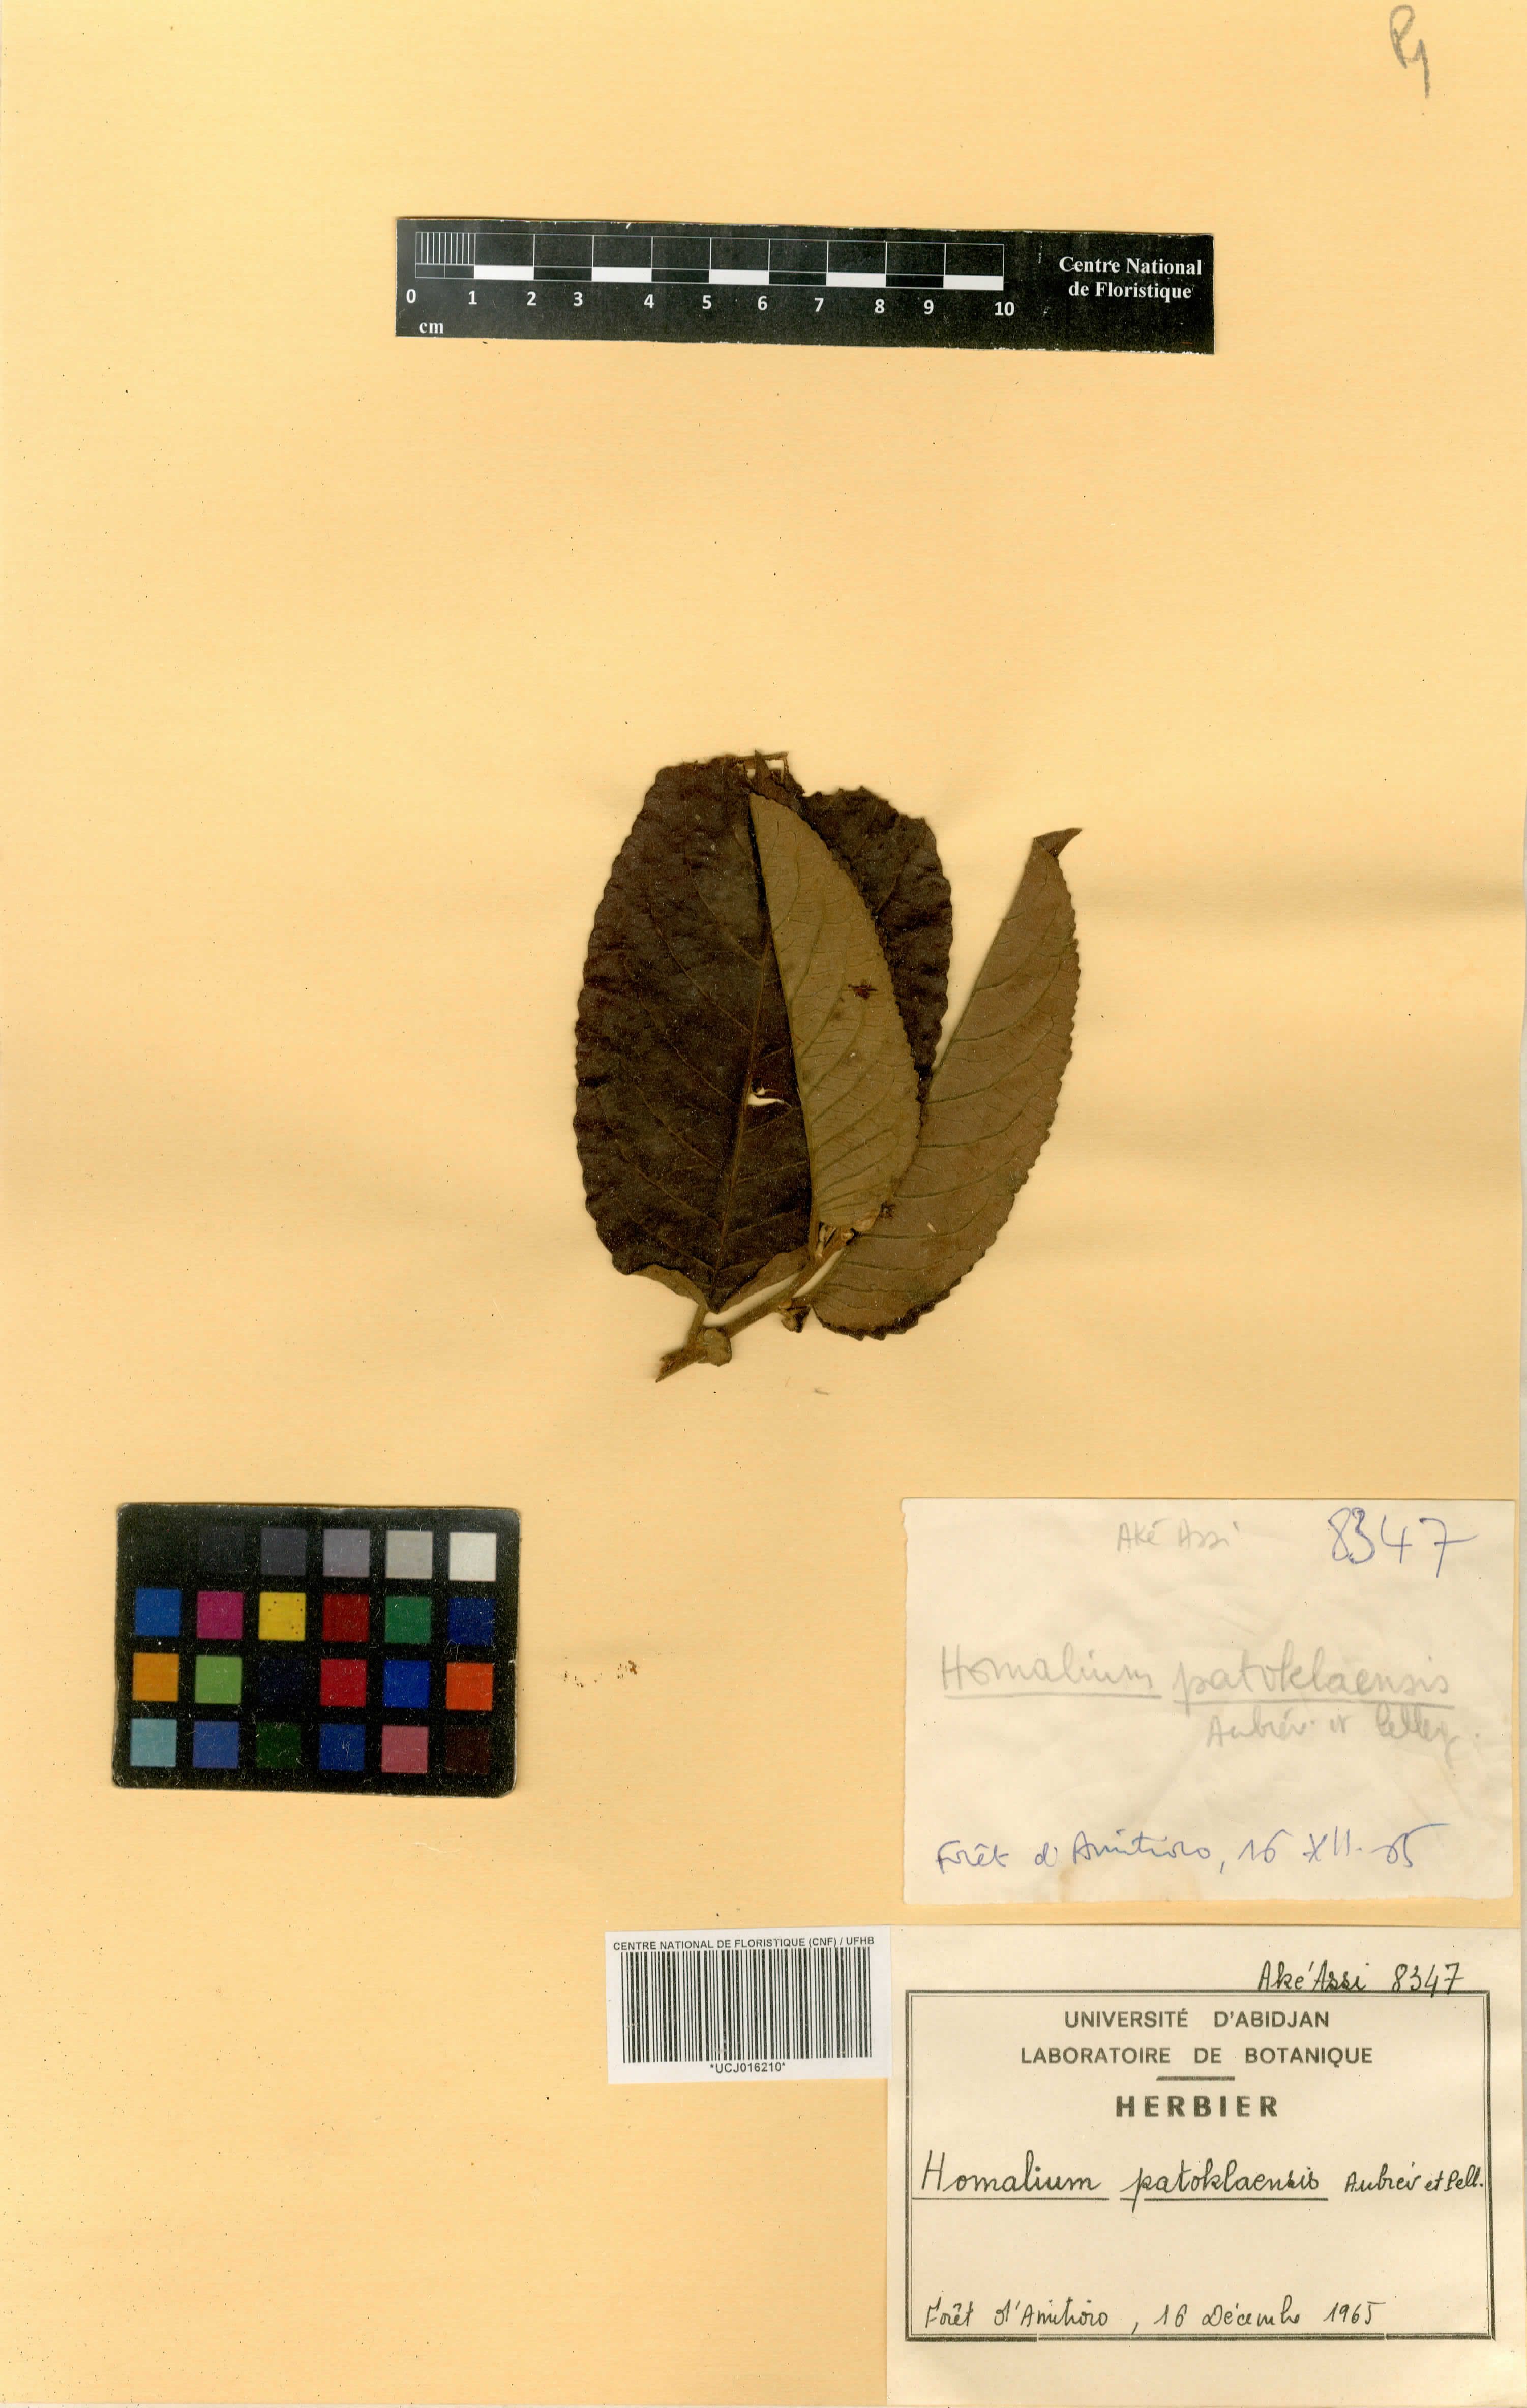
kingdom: Plantae
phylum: Tracheophyta
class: Magnoliopsida
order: Malpighiales
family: Salicaceae
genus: Homalium
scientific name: Homalium lastoursvillense
